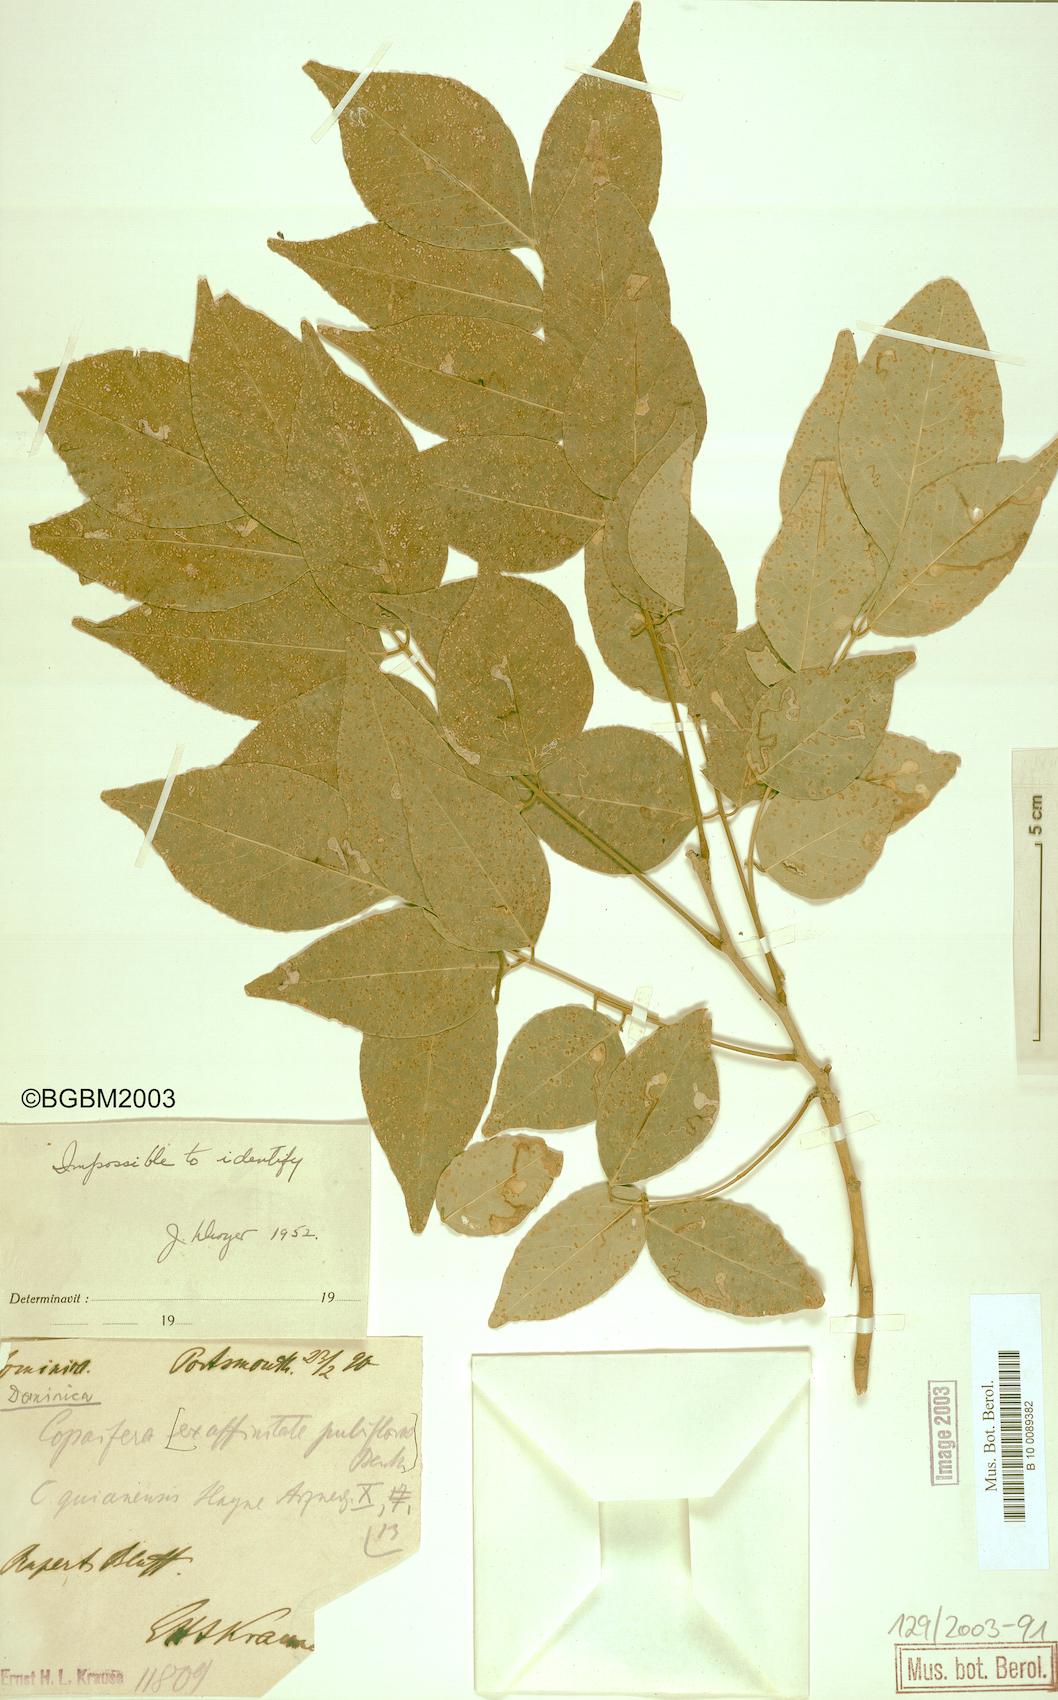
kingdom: Plantae
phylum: Tracheophyta
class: Magnoliopsida
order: Fabales
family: Fabaceae
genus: Copaifera
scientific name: Copaifera
